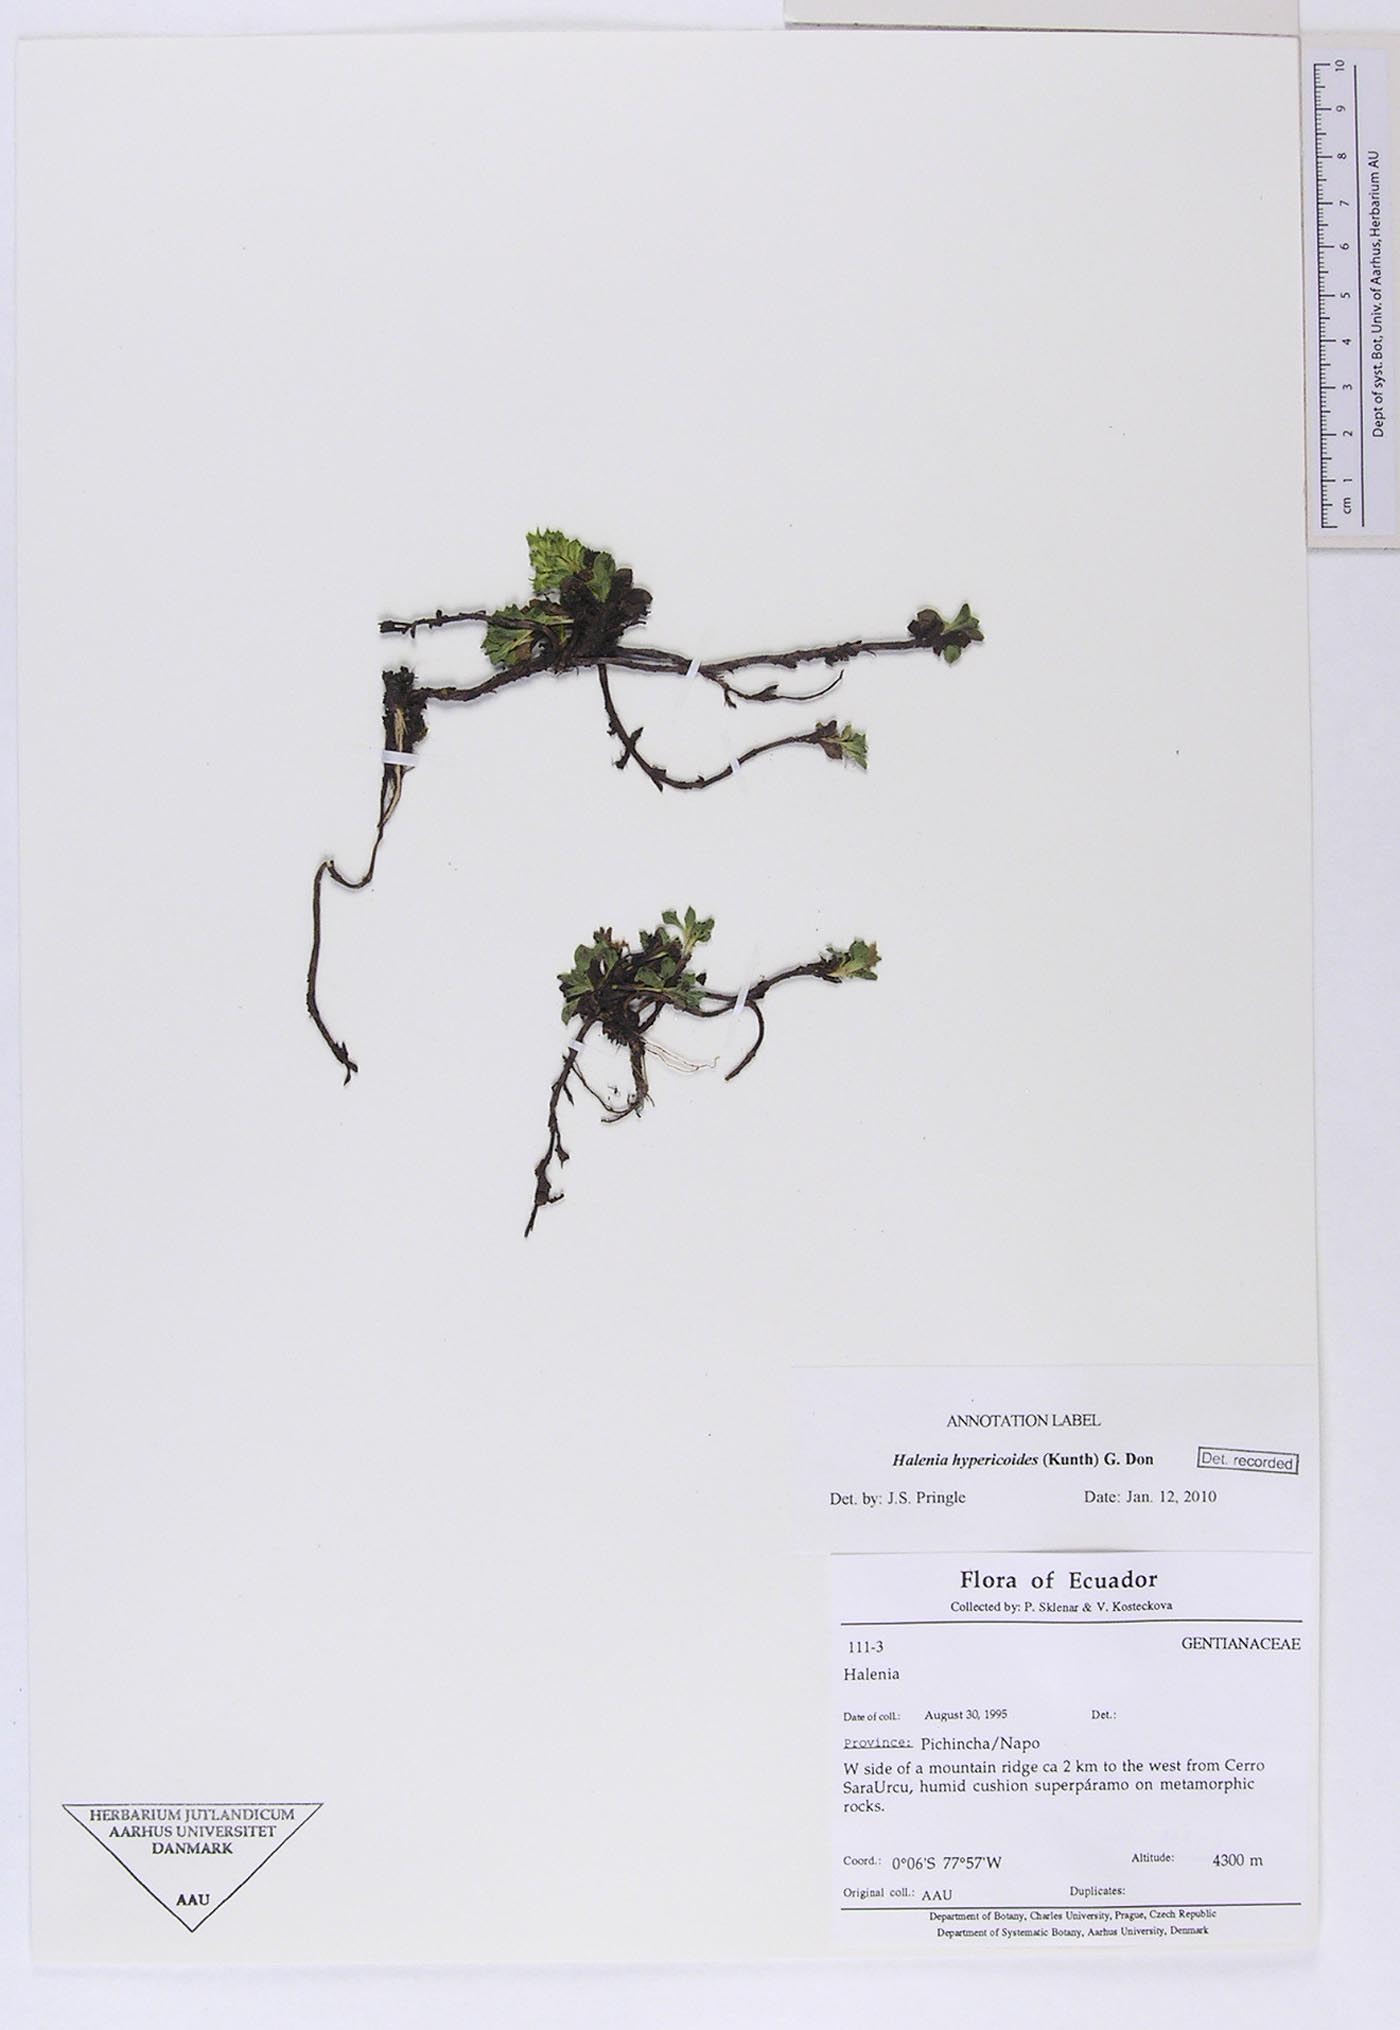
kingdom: Plantae
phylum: Tracheophyta
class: Magnoliopsida
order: Gentianales
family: Gentianaceae
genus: Halenia
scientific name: Halenia hypericoides
